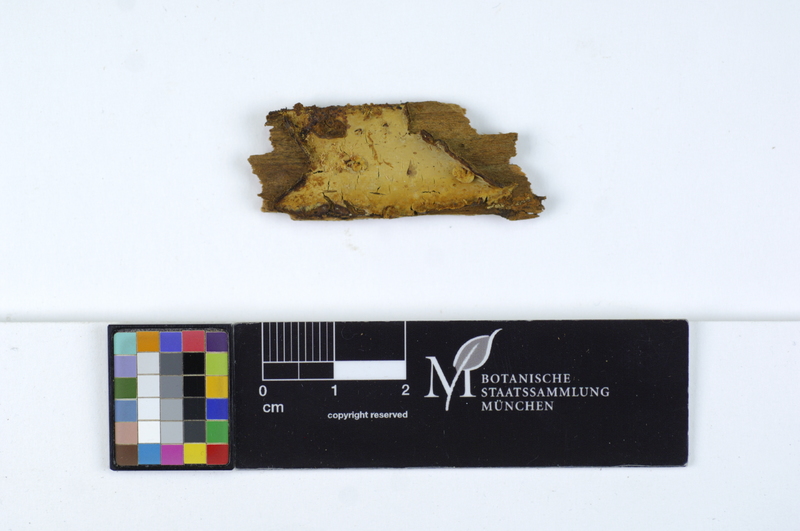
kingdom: Plantae
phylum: Tracheophyta
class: Magnoliopsida
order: Fagales
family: Fagaceae
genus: Quercus
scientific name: Quercus pubescens
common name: Downy oak
